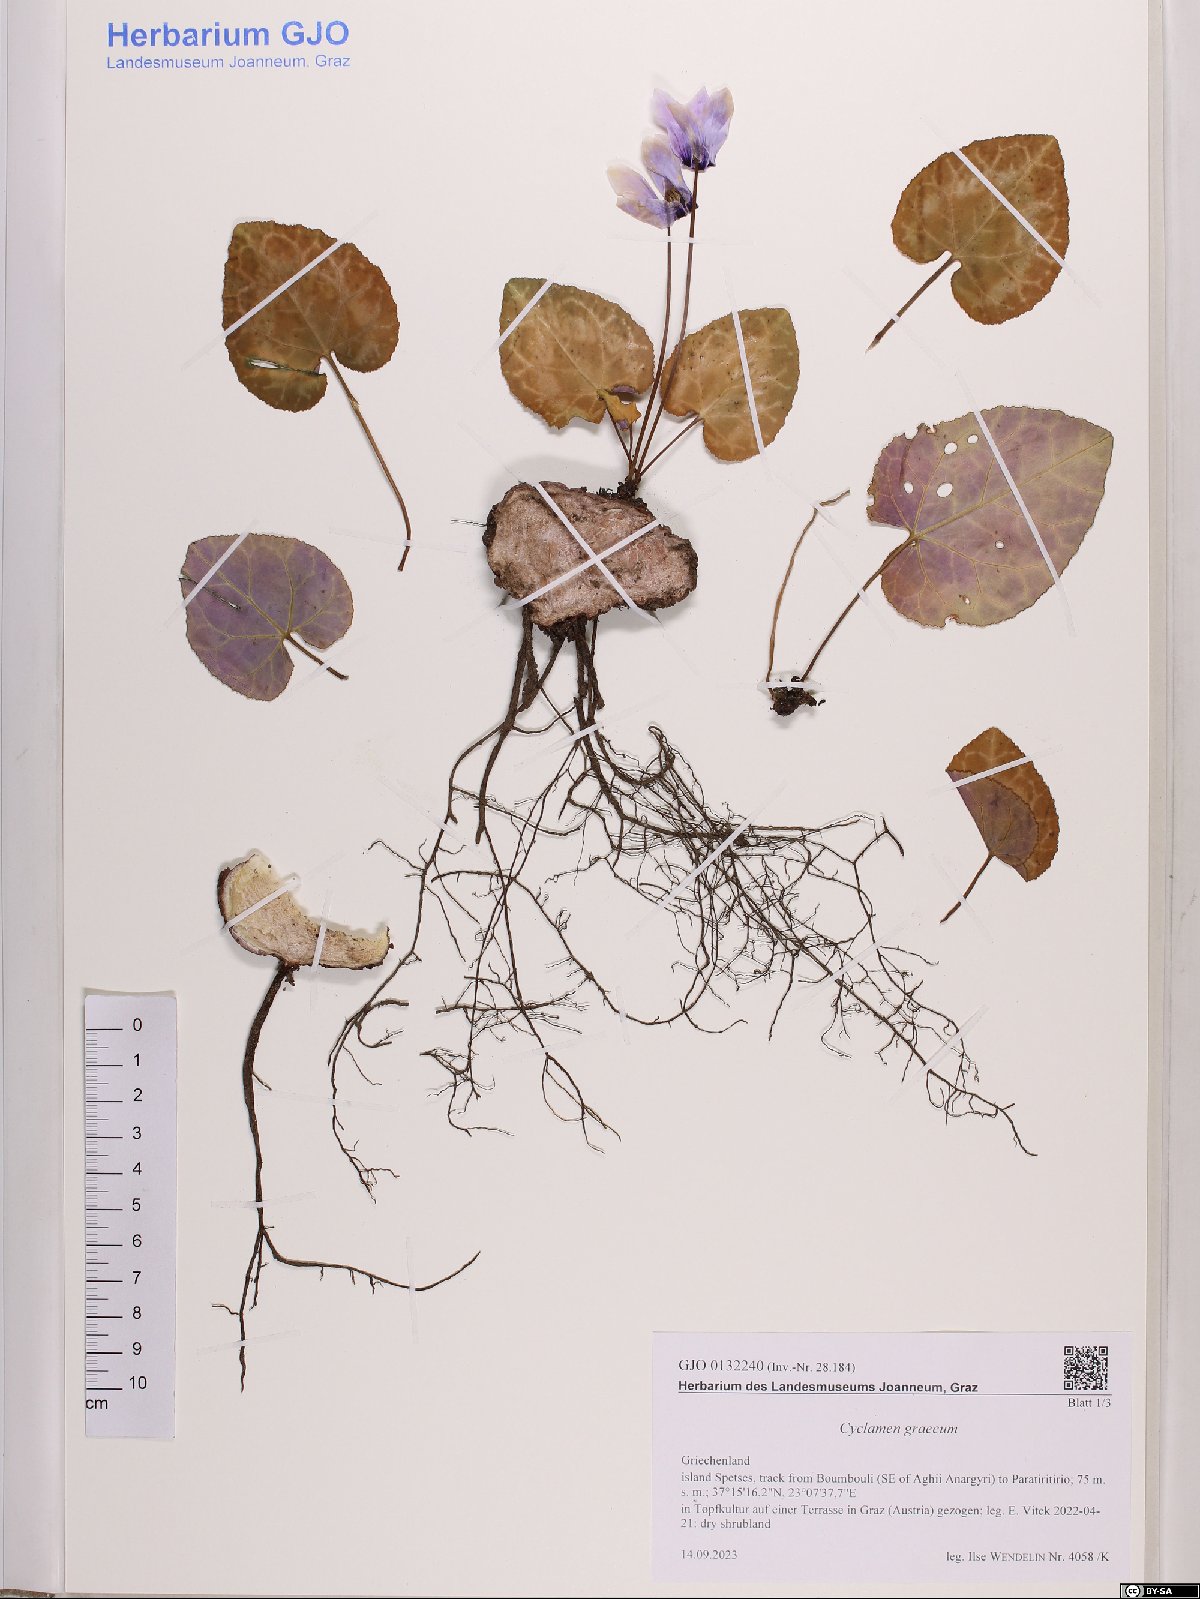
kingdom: Plantae
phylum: Tracheophyta
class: Magnoliopsida
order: Ericales
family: Primulaceae
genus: Cyclamen
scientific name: Cyclamen graecum
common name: Greek cyclamen
